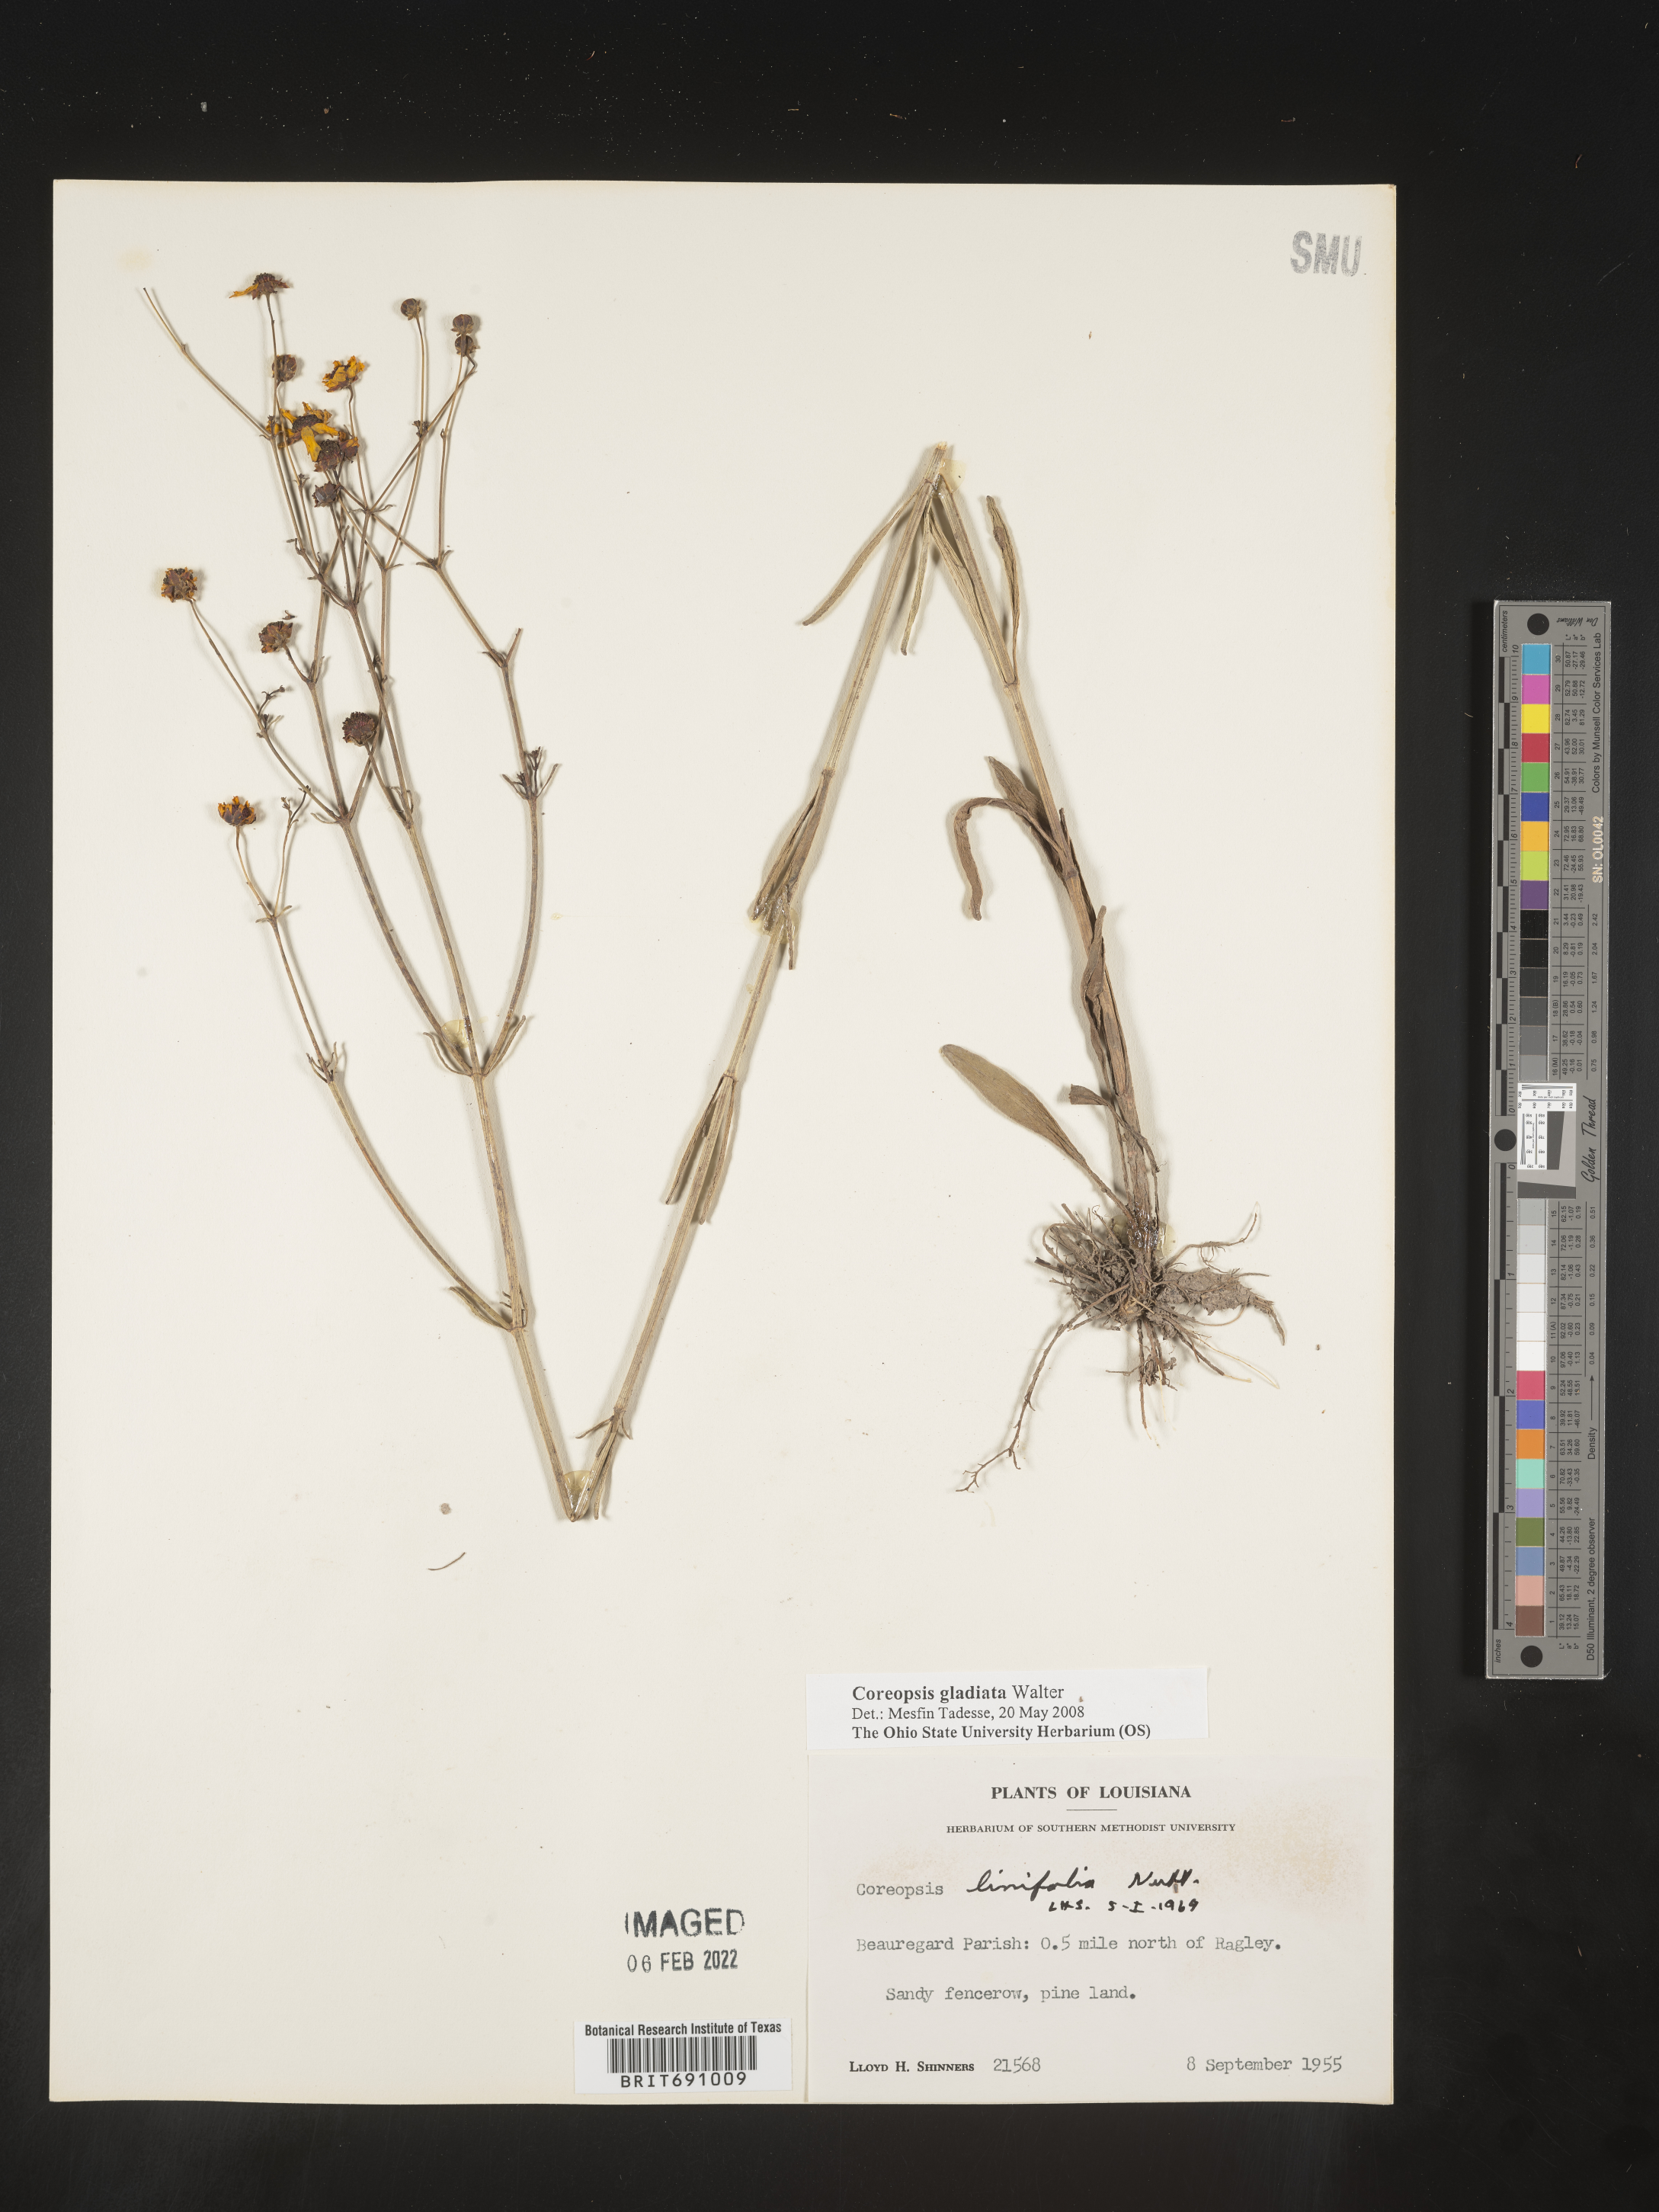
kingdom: Plantae
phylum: Tracheophyta
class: Magnoliopsida
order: Asterales
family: Asteraceae
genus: Coreopsis
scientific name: Coreopsis gladiata
